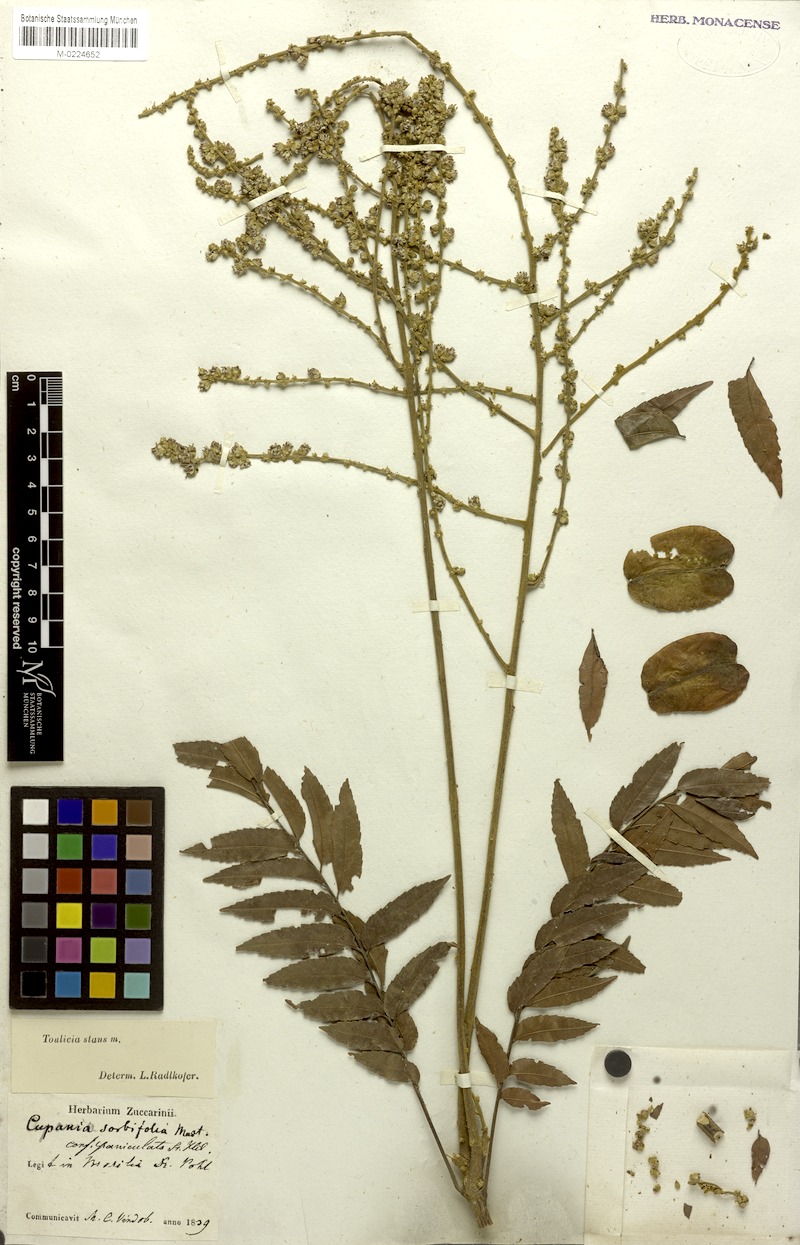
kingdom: Plantae
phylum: Tracheophyta
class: Magnoliopsida
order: Sapindales
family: Sapindaceae
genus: Toulicia
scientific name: Toulicia stans
